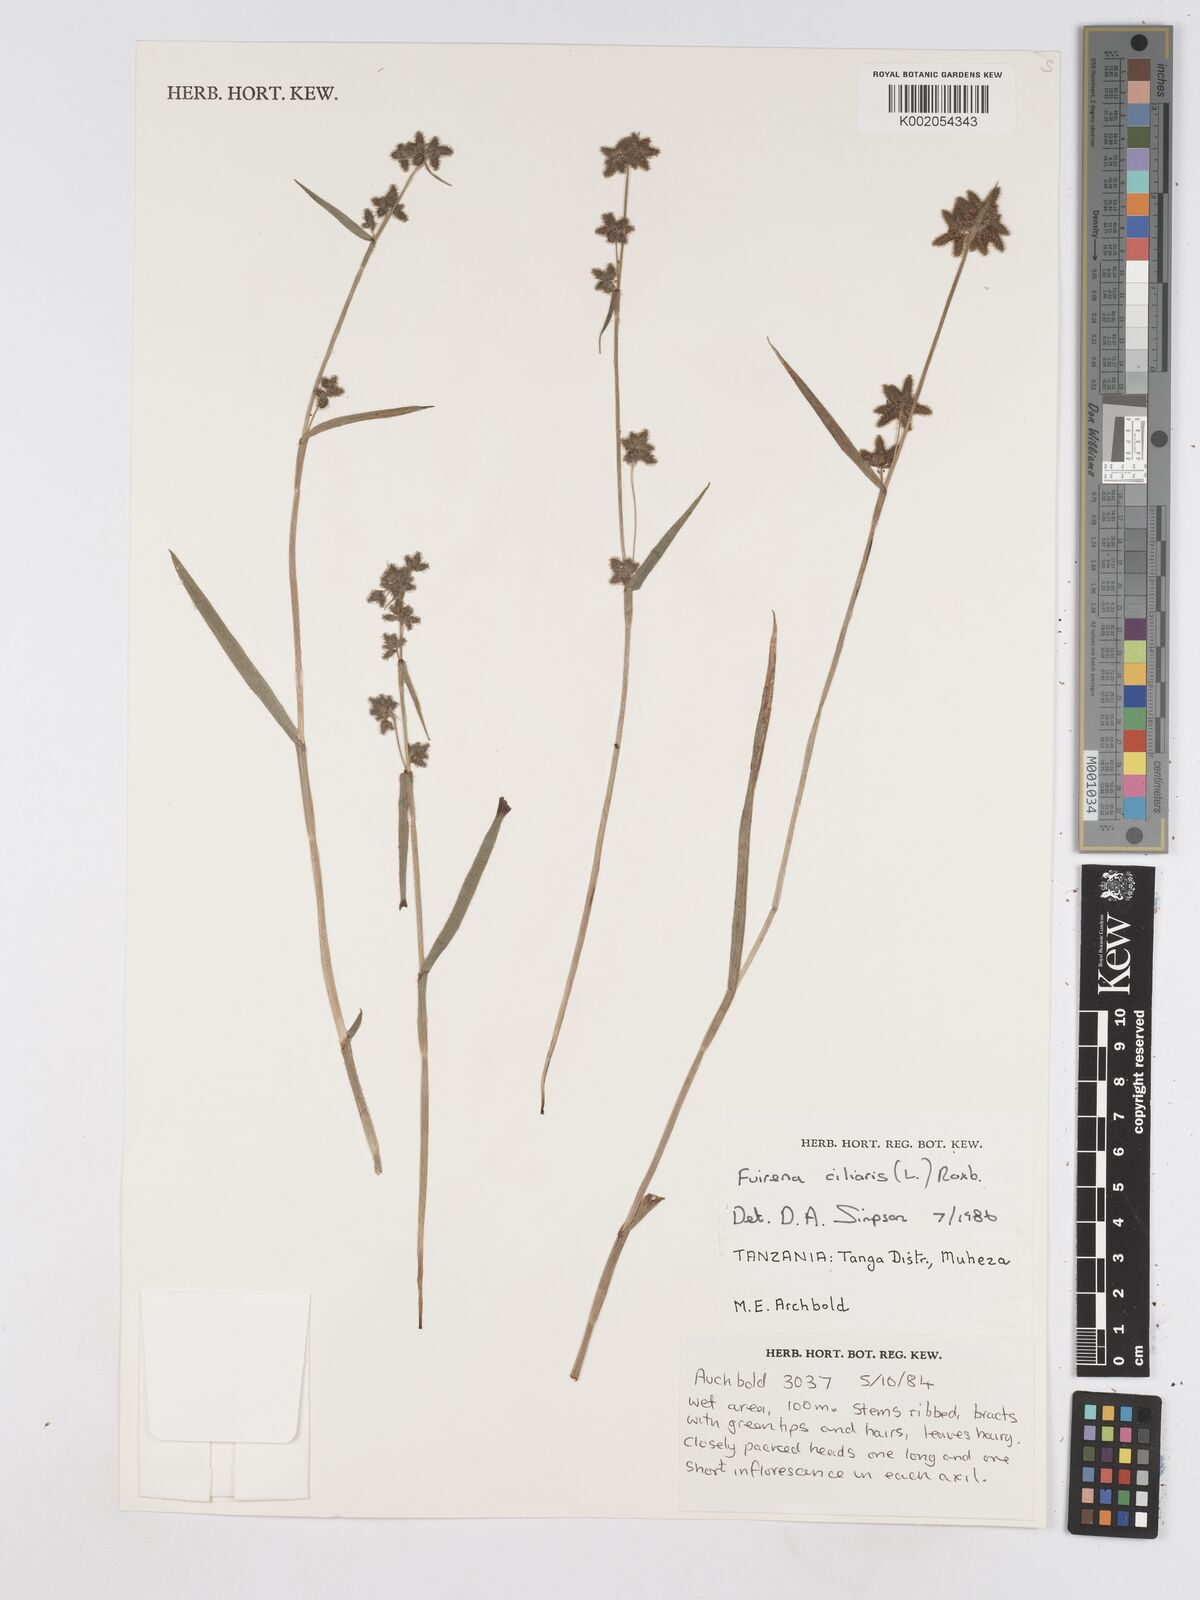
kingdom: Plantae
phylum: Tracheophyta
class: Liliopsida
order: Poales
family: Cyperaceae
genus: Fuirena
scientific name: Fuirena ciliaris
